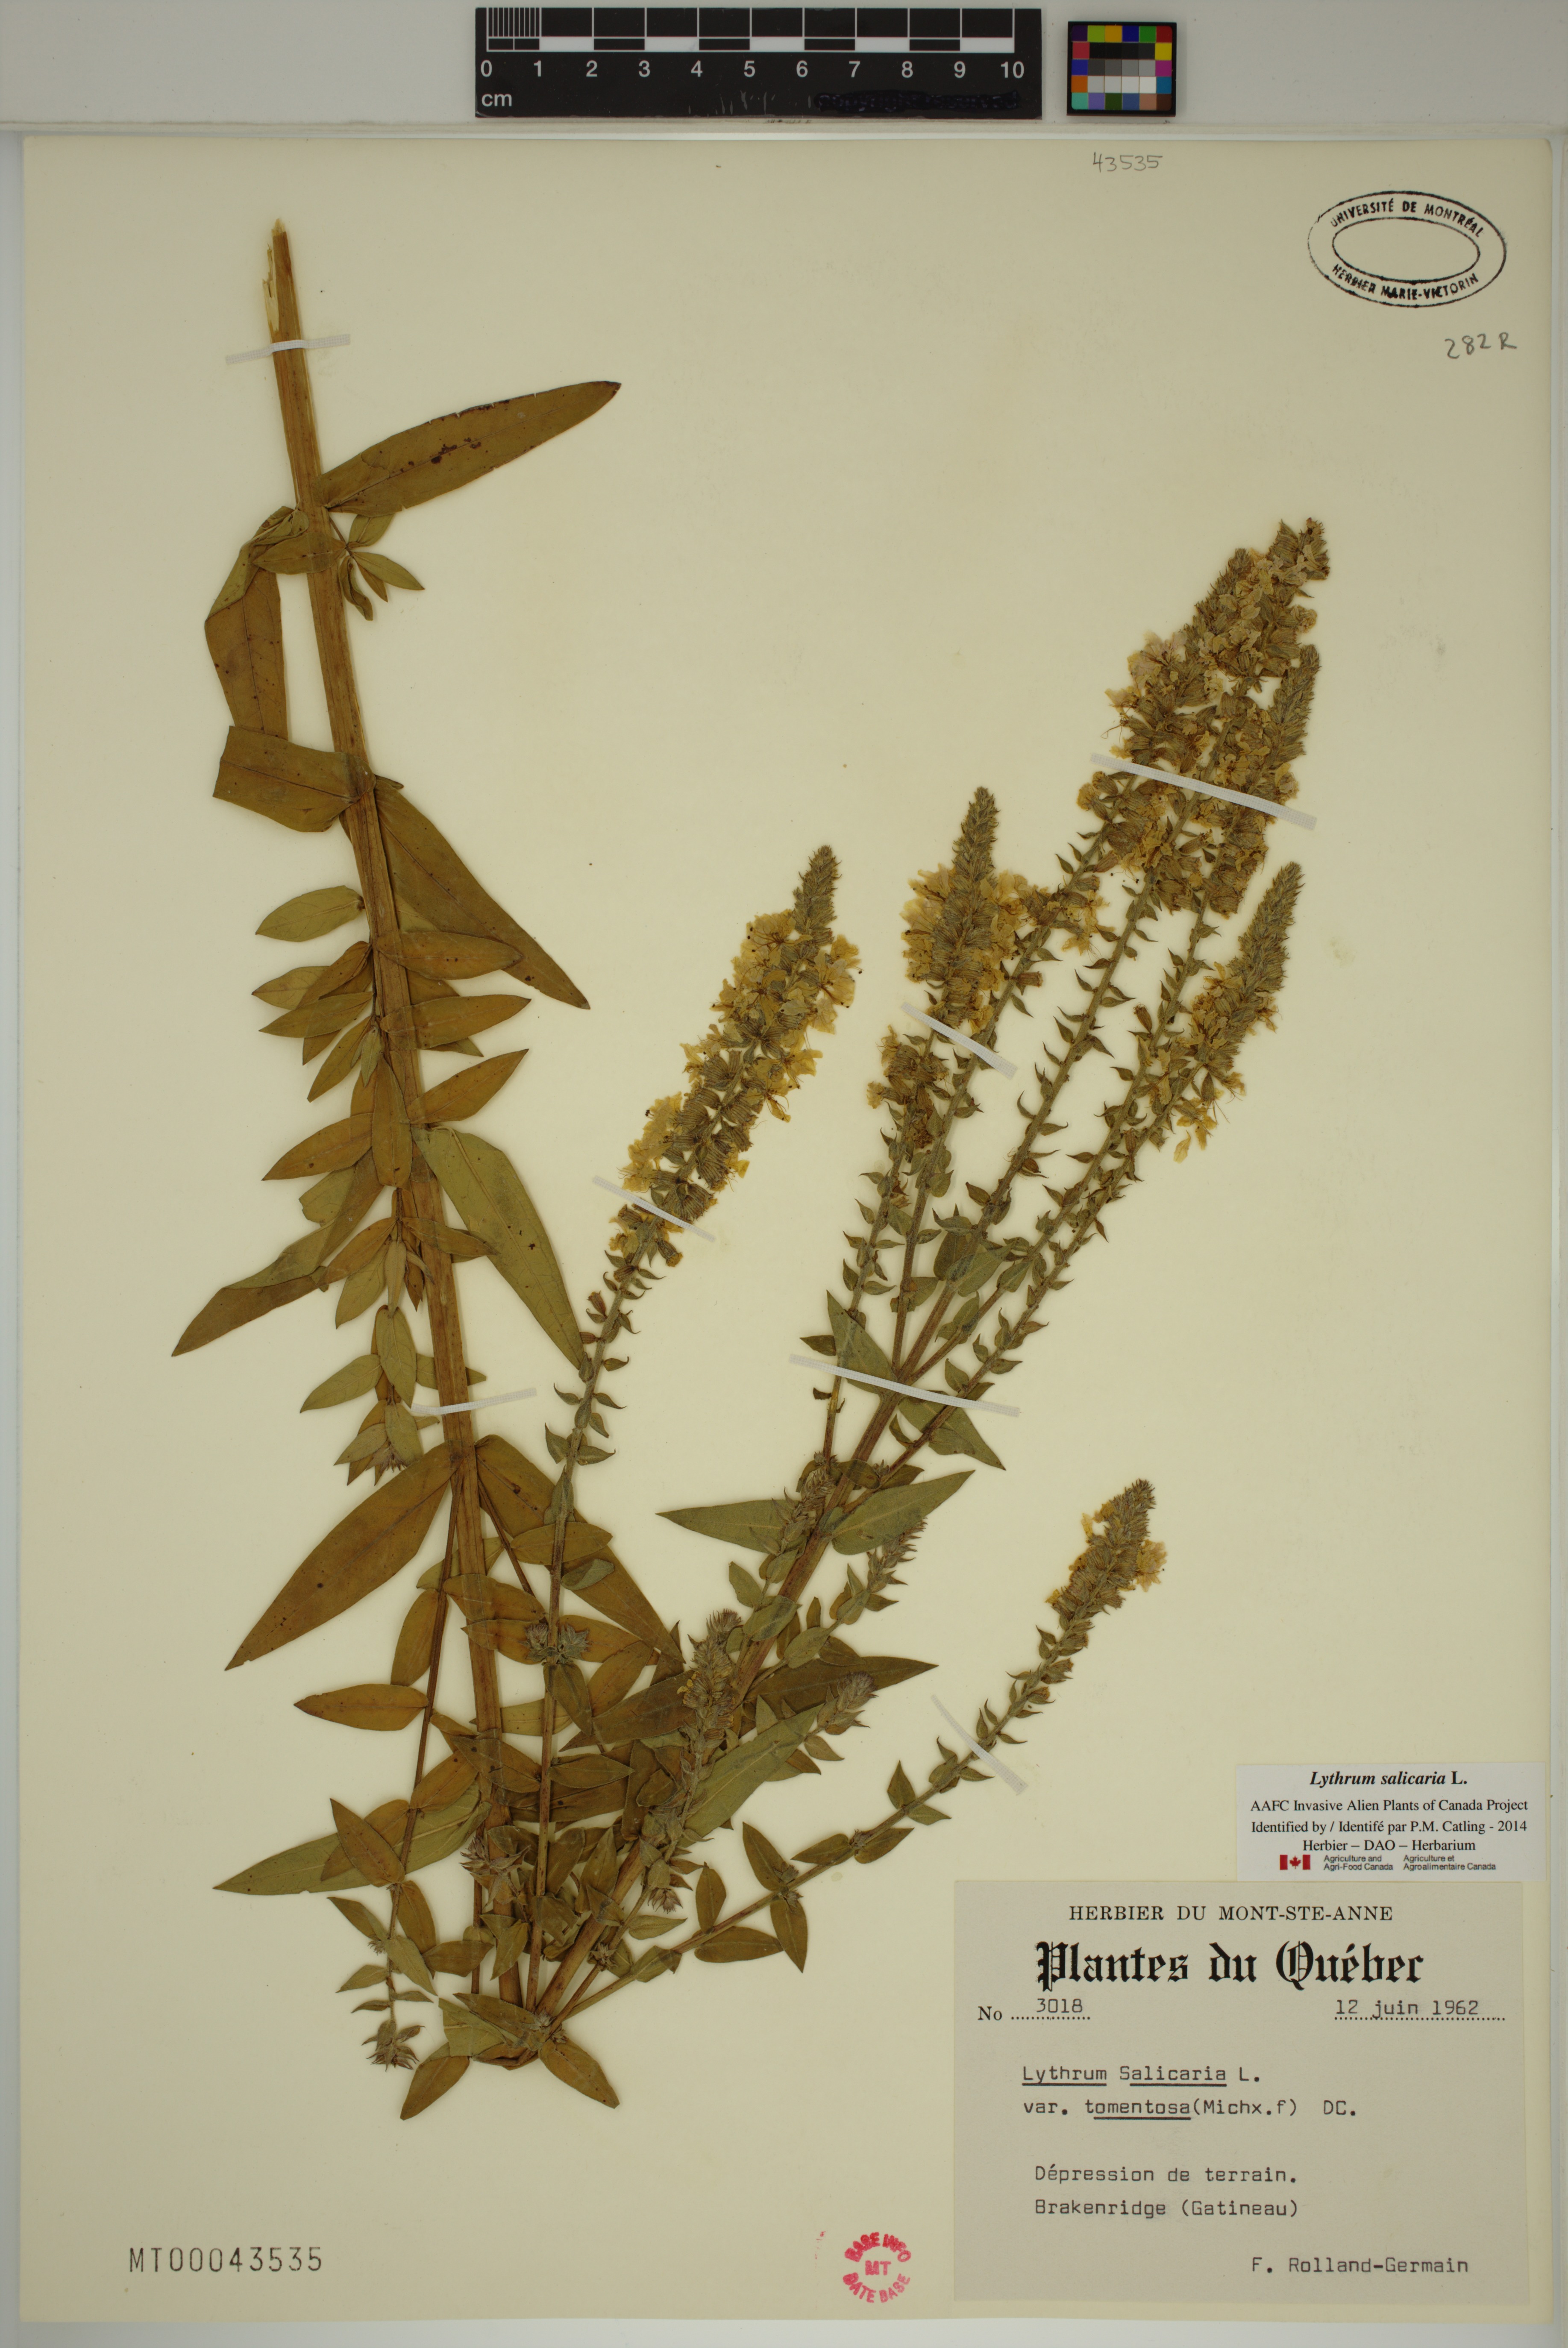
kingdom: Plantae
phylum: Tracheophyta
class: Magnoliopsida
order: Myrtales
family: Lythraceae
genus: Lythrum
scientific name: Lythrum salicaria
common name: Purple loosestrife
